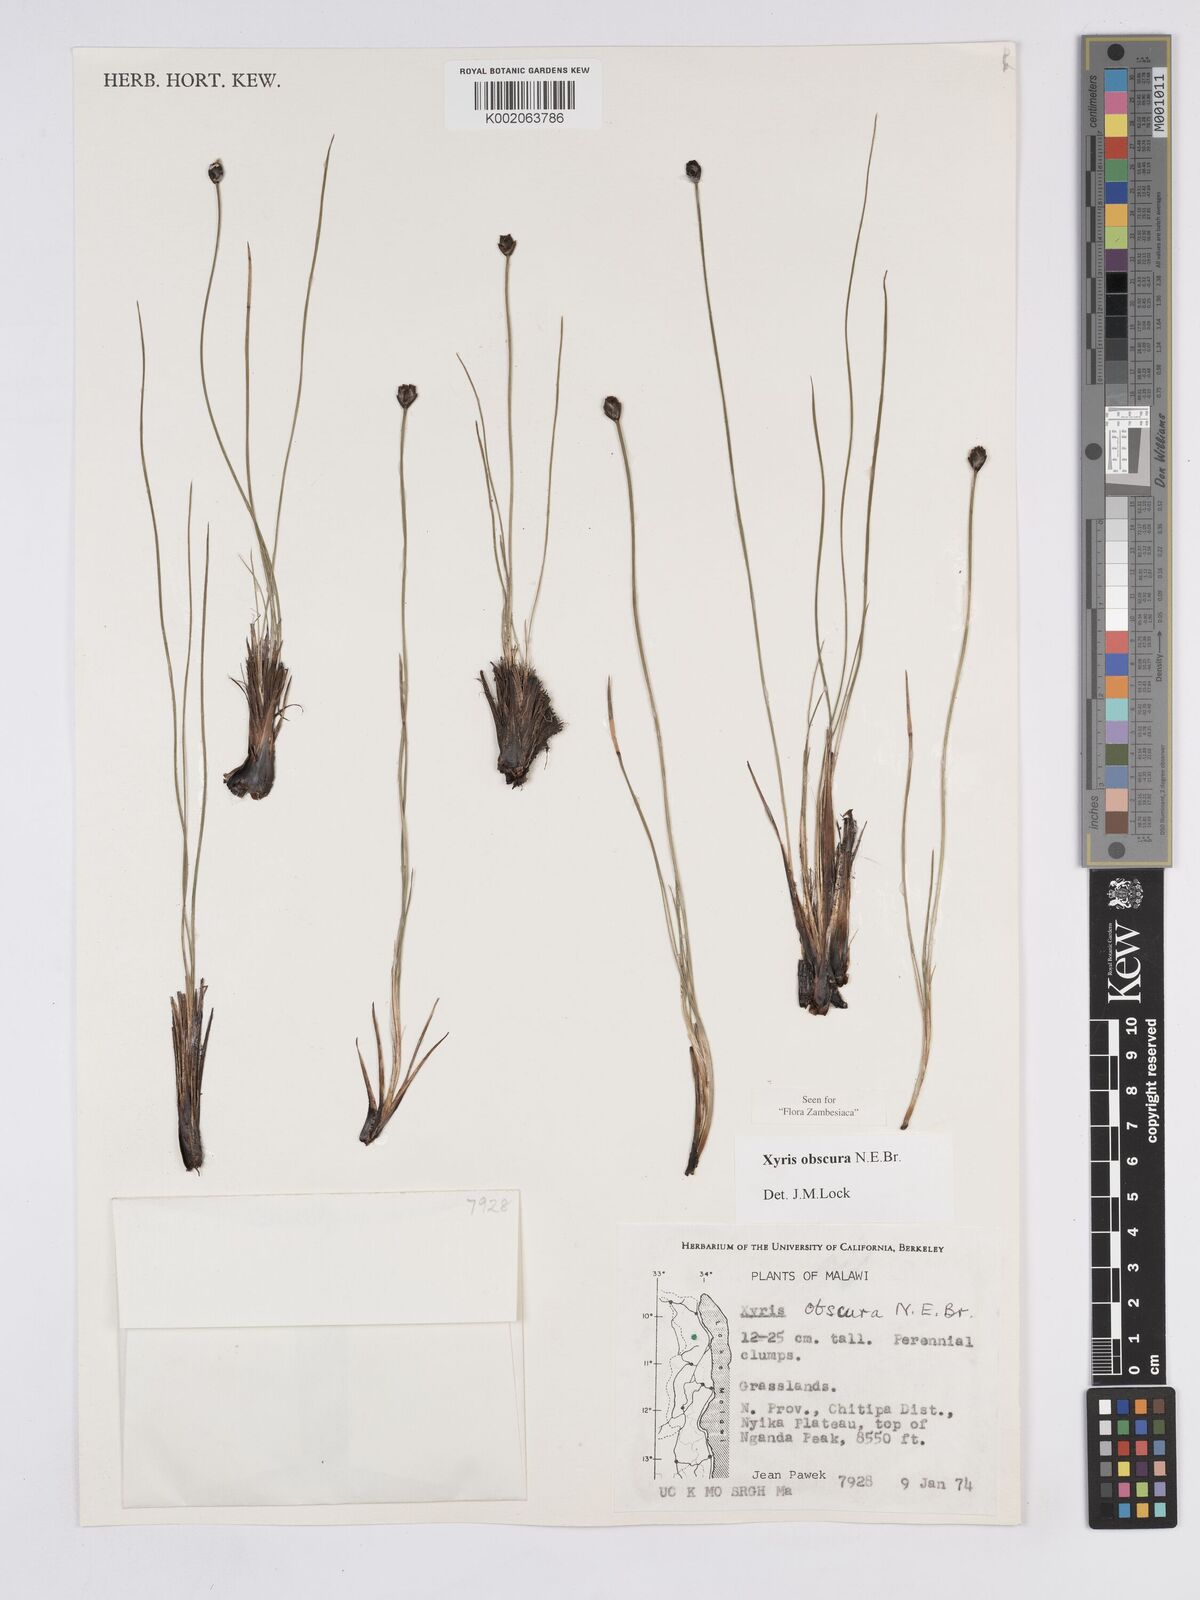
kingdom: Plantae
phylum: Tracheophyta
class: Liliopsida
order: Poales
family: Xyridaceae
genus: Xyris
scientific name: Xyris obscura
